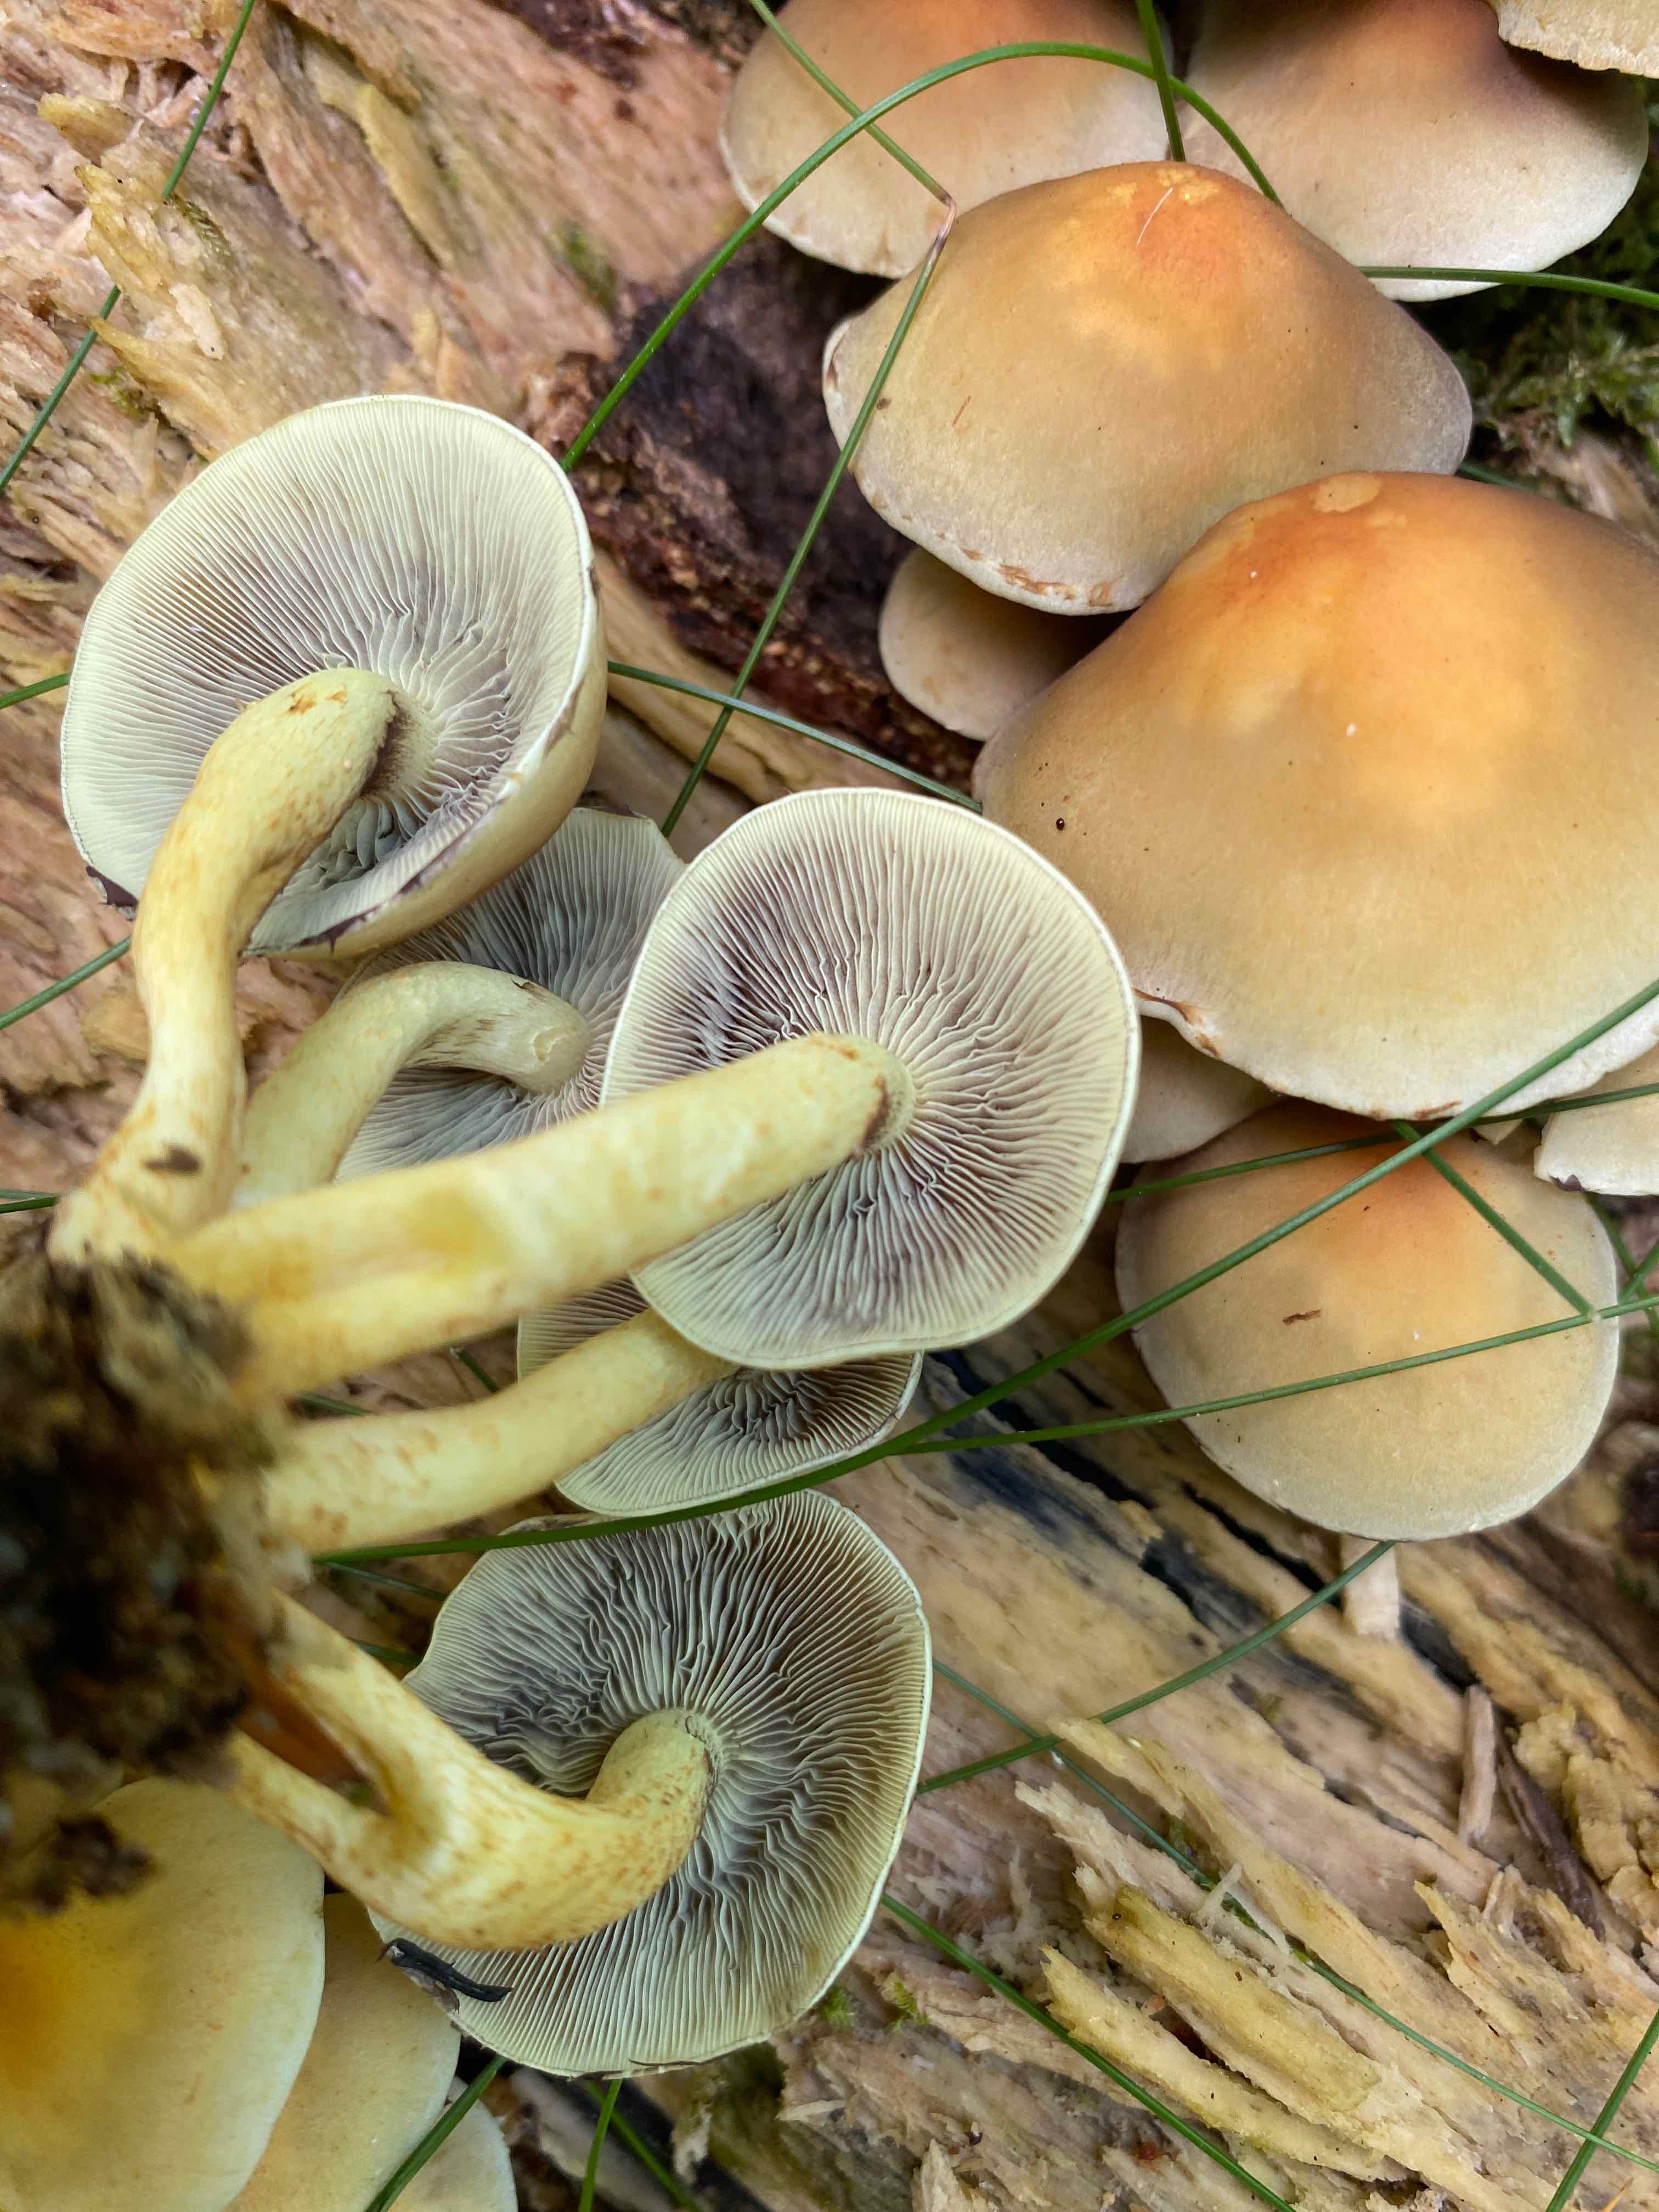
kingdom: Fungi
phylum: Basidiomycota
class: Agaricomycetes
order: Agaricales
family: Strophariaceae
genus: Hypholoma
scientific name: Hypholoma fasciculare
